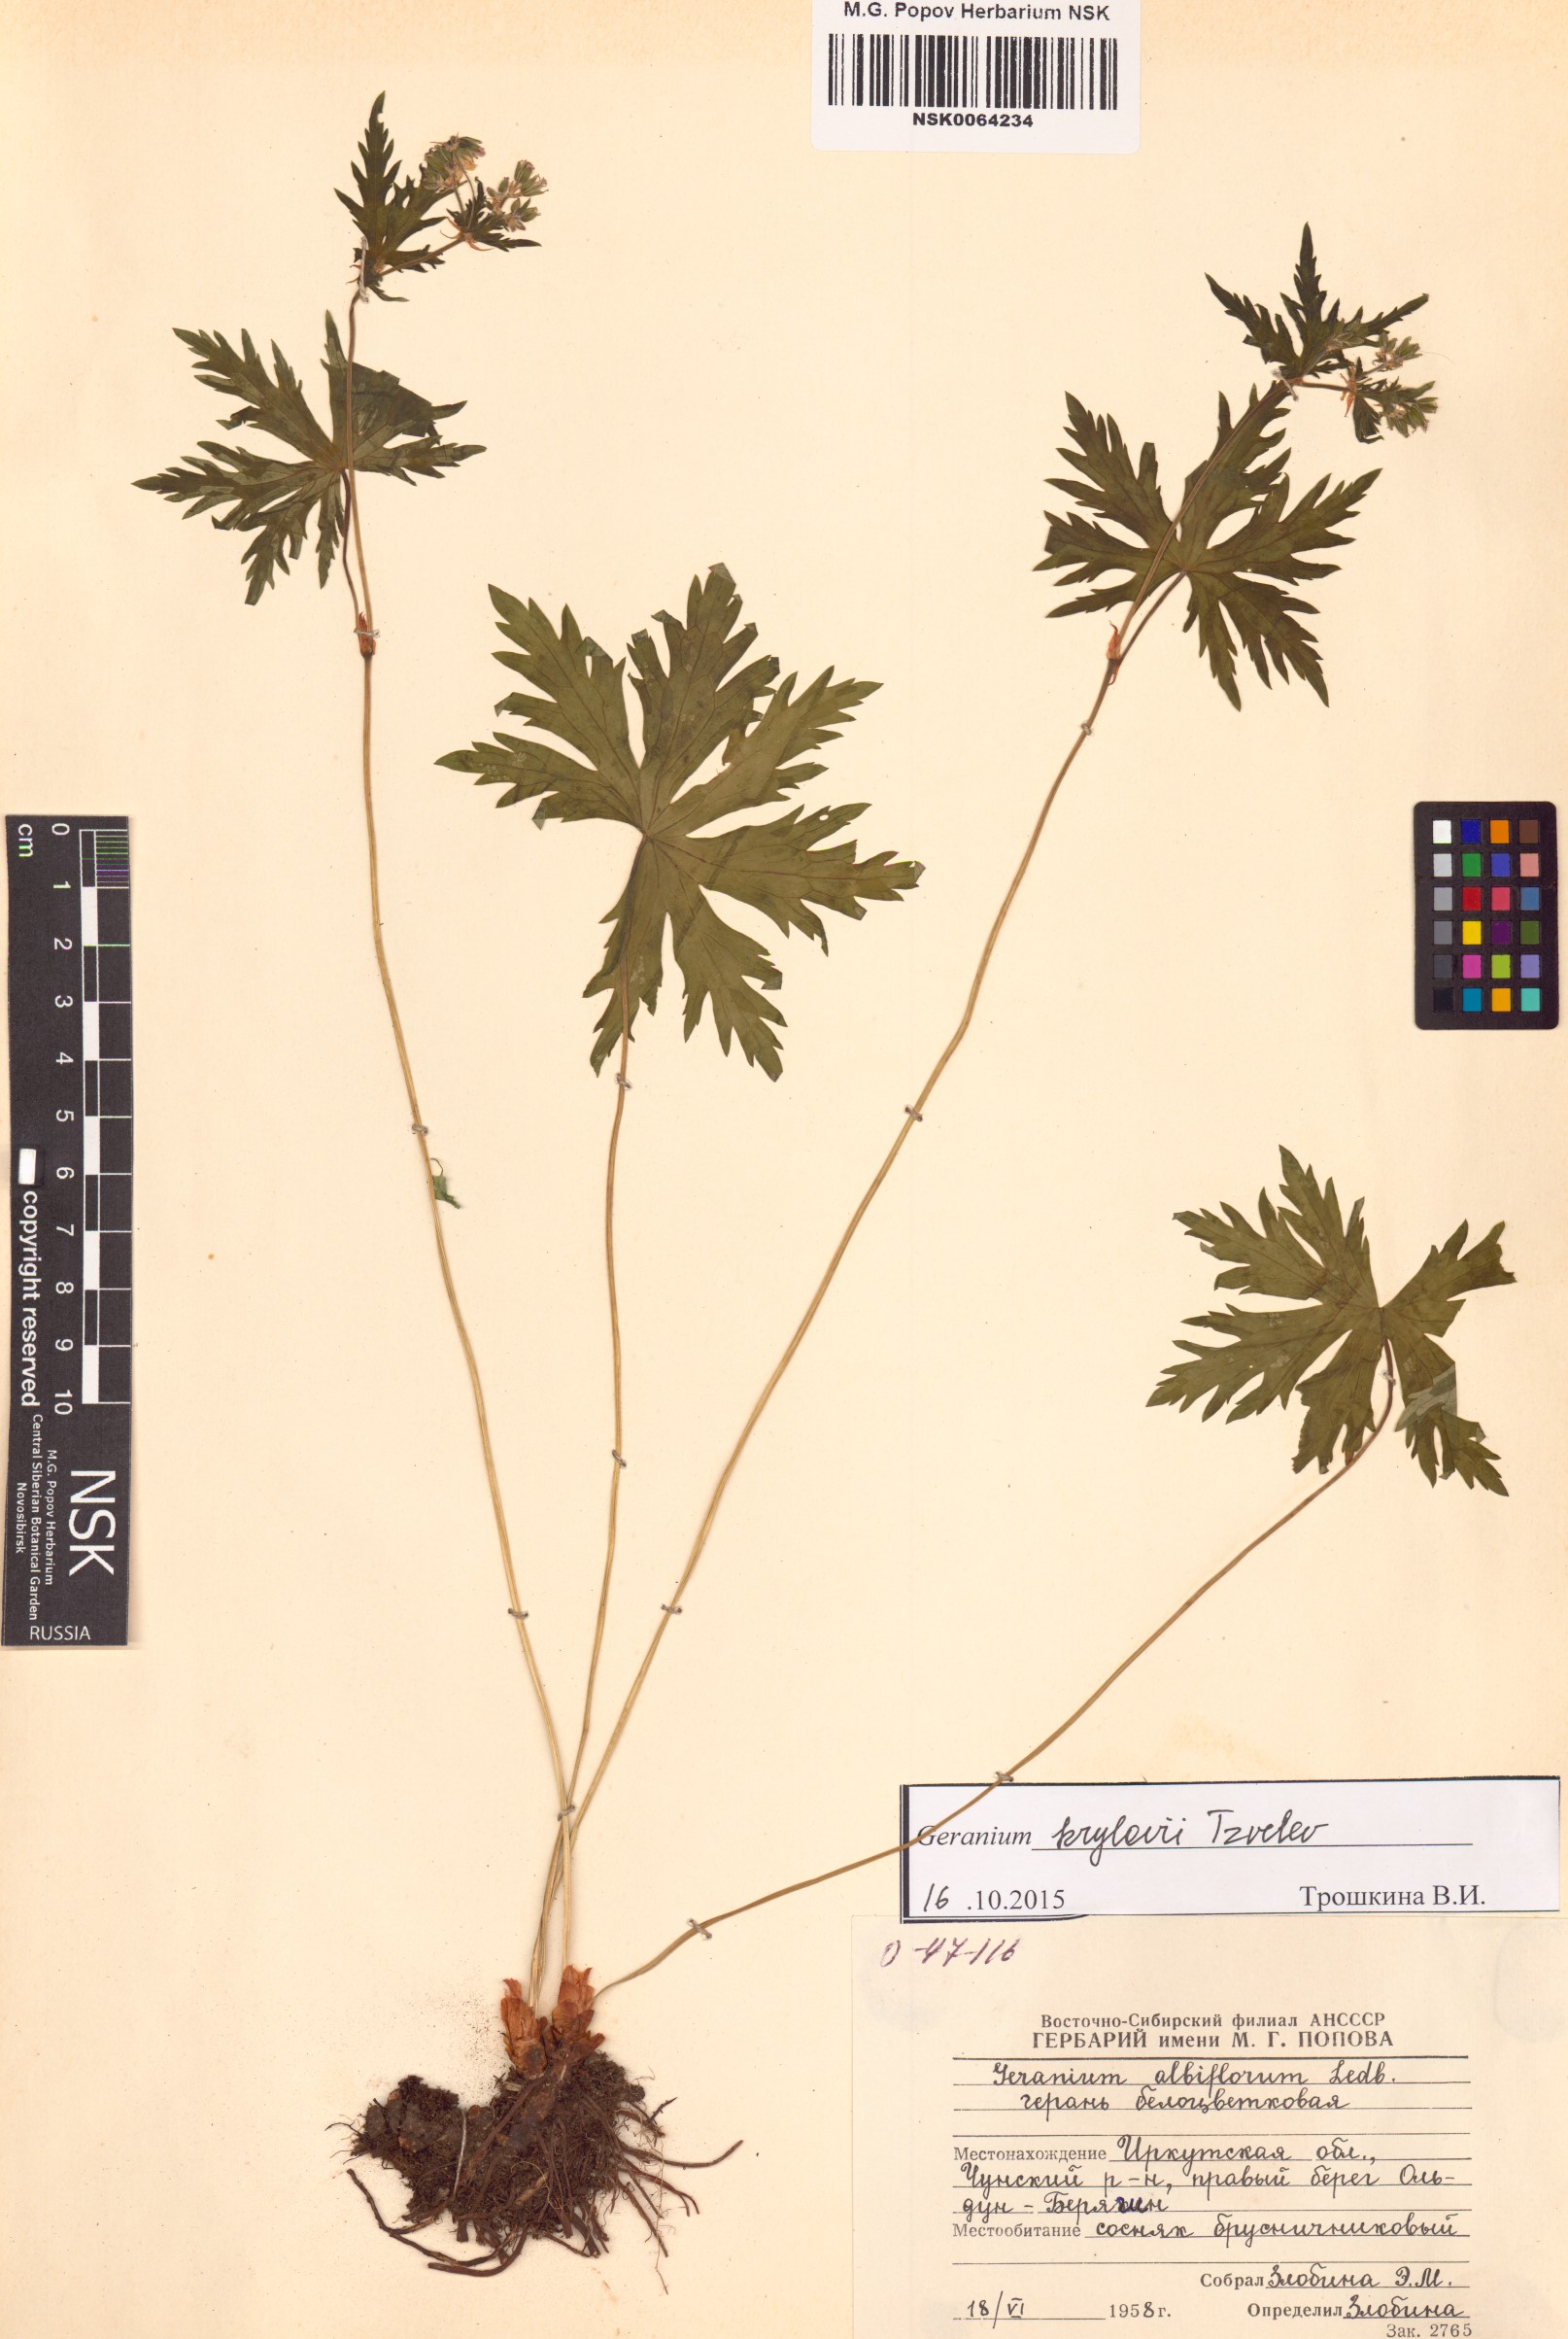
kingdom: Plantae
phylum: Tracheophyta
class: Magnoliopsida
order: Geraniales
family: Geraniaceae
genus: Geranium
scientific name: Geranium sylvaticum
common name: Wood crane's-bill
